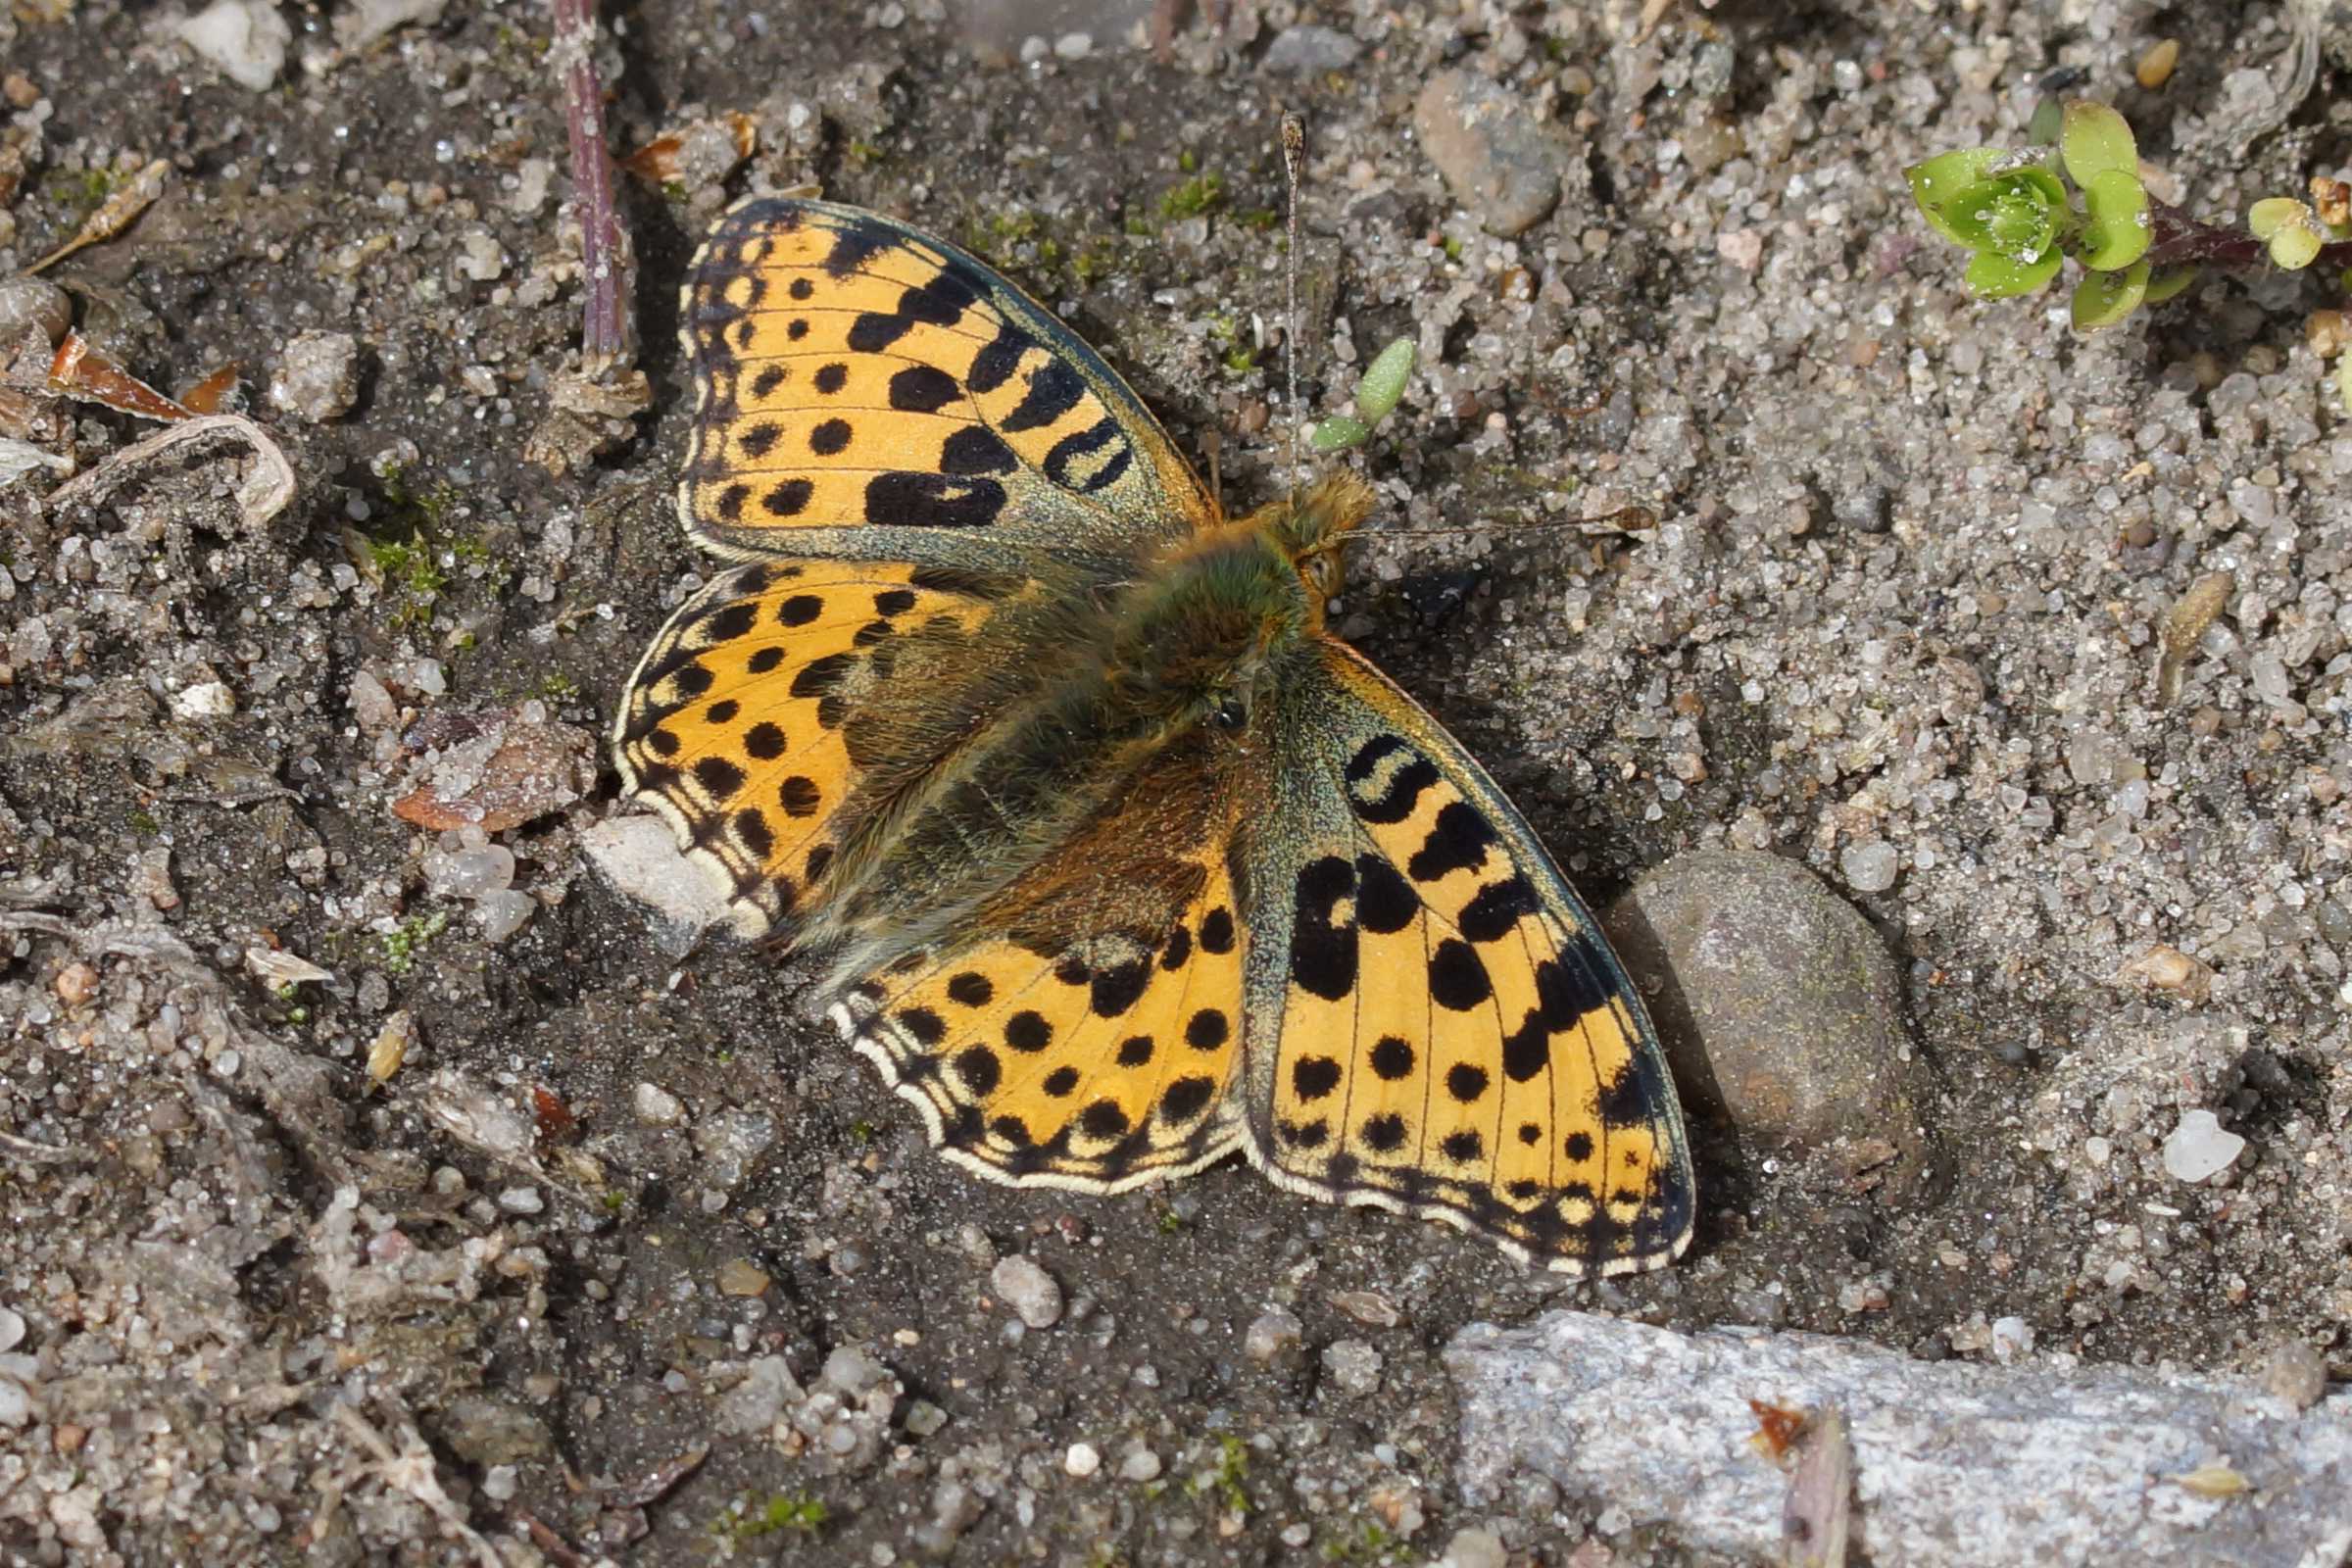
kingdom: Animalia
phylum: Arthropoda
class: Insecta
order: Lepidoptera
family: Nymphalidae
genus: Issoria
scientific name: Issoria lathonia
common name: Storplettet perlemorsommerfugl
